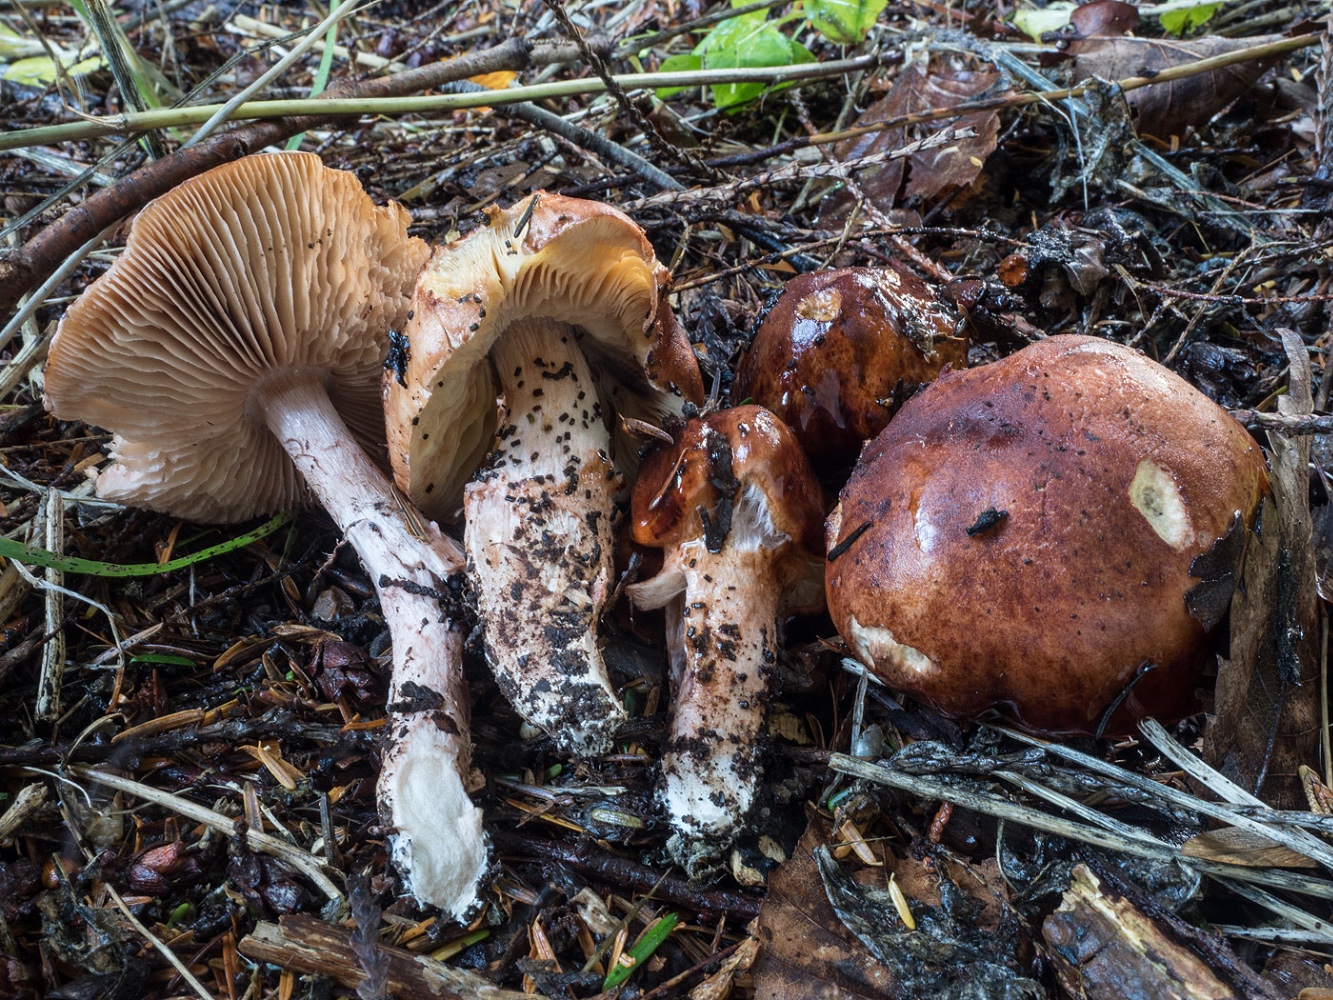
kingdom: Fungi
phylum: Basidiomycota
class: Agaricomycetes
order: Agaricales
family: Amanitaceae
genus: Limacella
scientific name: Limacella delicata
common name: rosabrun snekkehat
